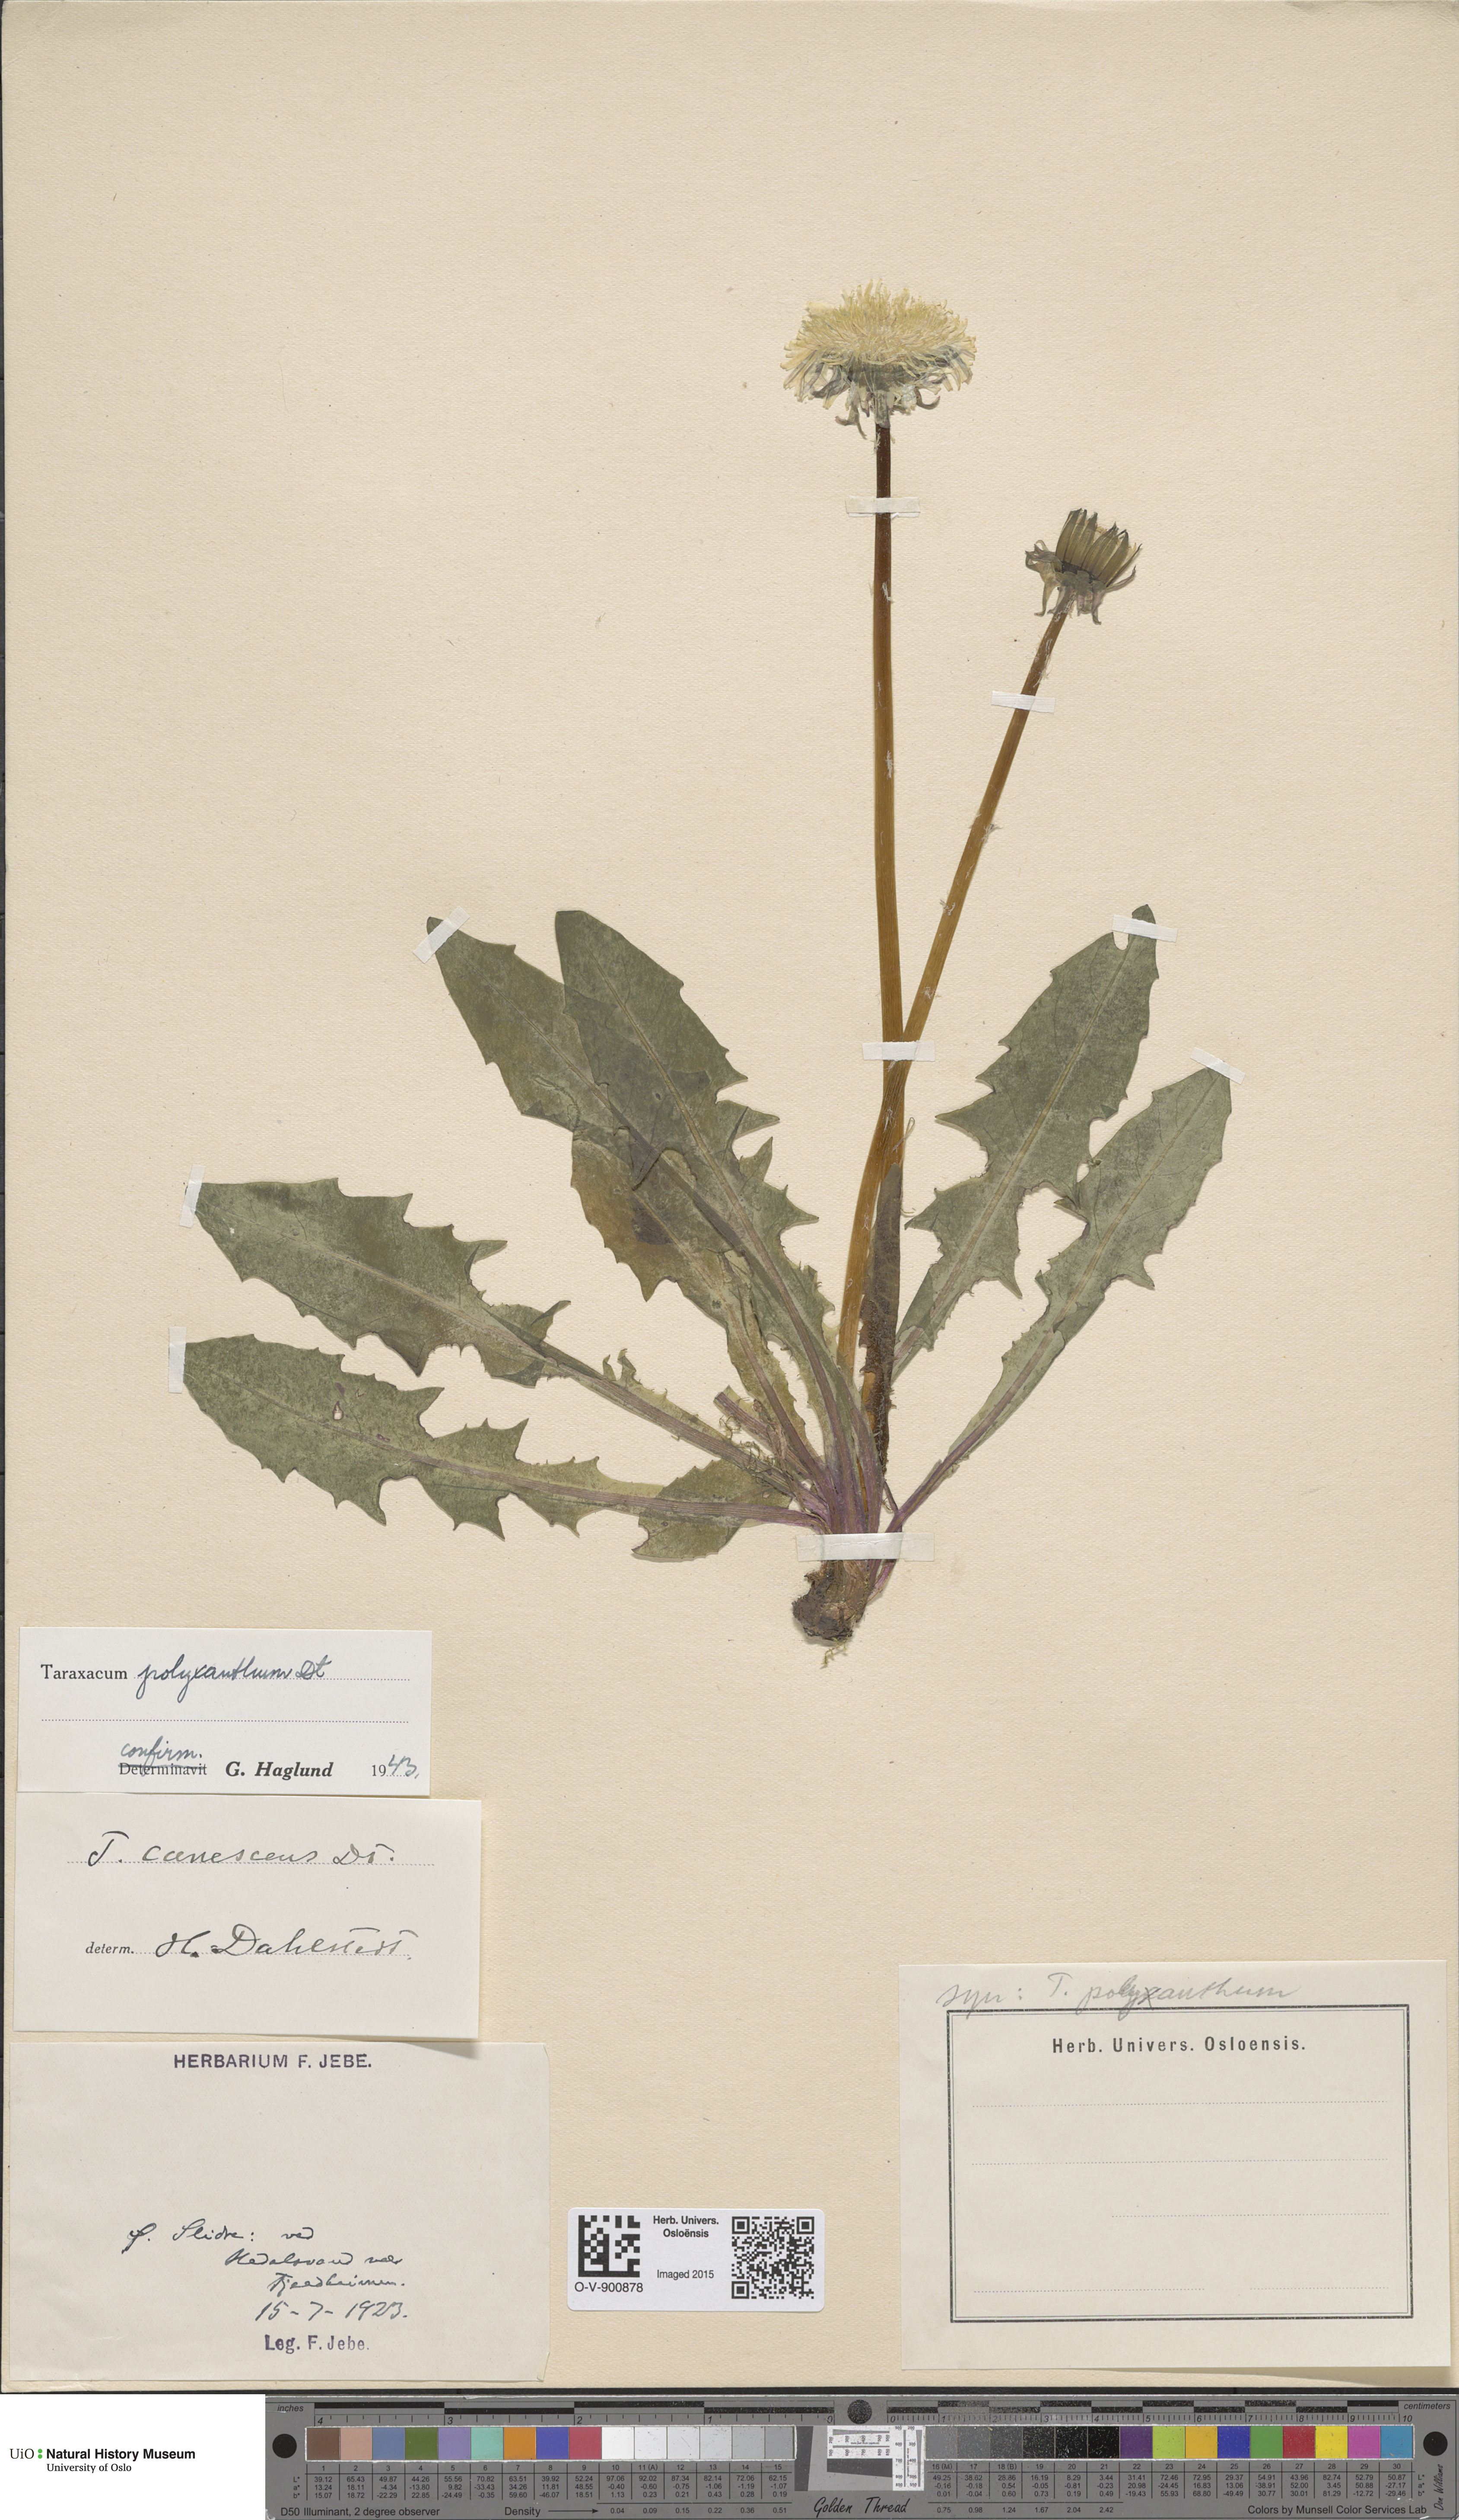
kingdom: Plantae
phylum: Tracheophyta
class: Magnoliopsida
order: Asterales
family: Asteraceae
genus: Taraxacum
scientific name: Taraxacum polyxanthum
